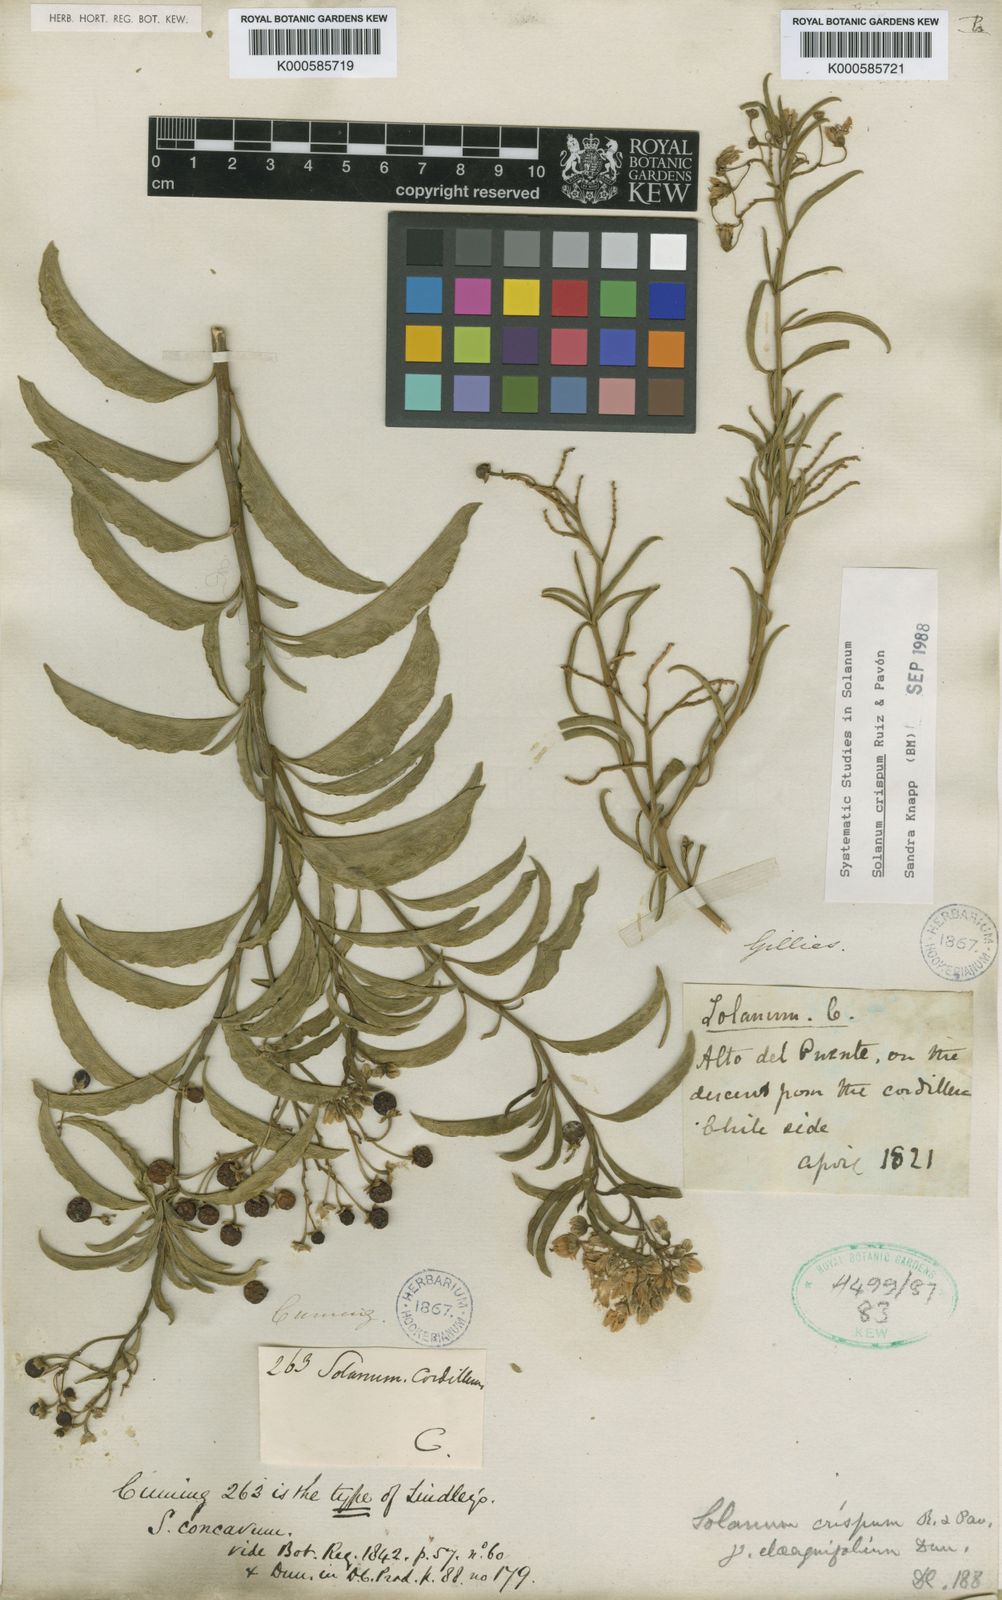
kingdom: Plantae
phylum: Tracheophyta
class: Magnoliopsida
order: Solanales
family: Solanaceae
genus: Solanum
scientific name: Solanum crispum
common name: Chilean nightshade
